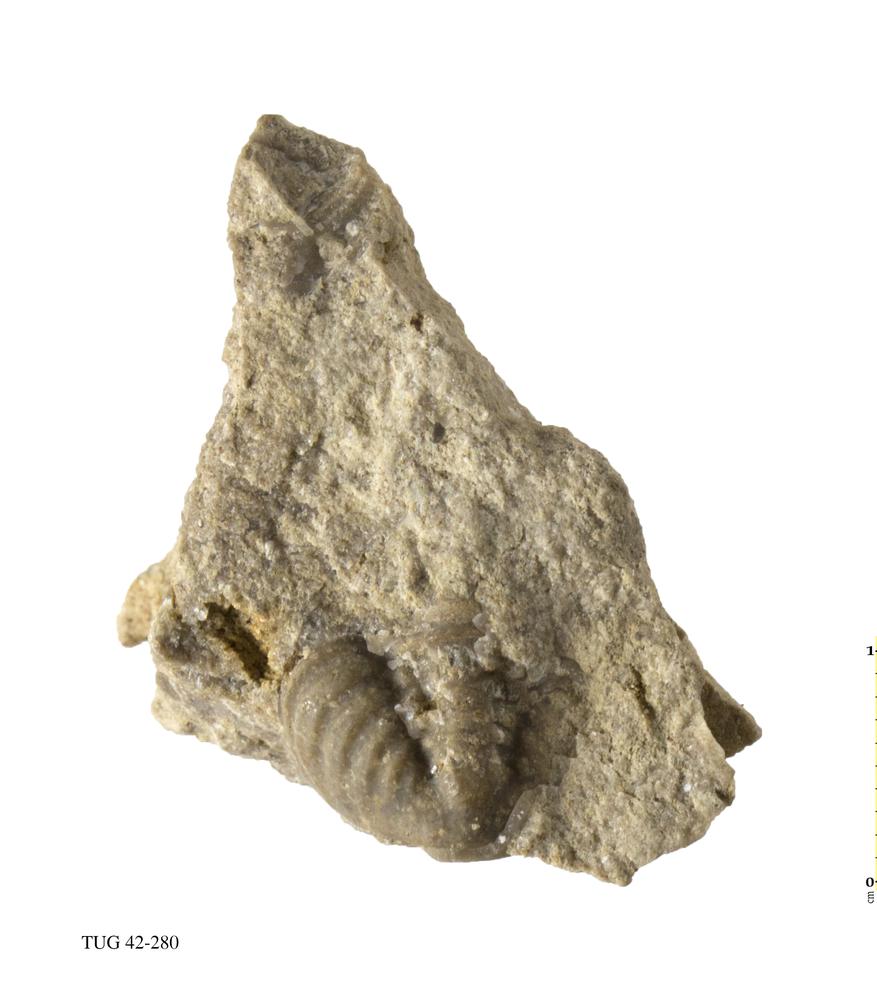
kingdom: Animalia
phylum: Arthropoda
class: Trilobita
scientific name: Trilobita
